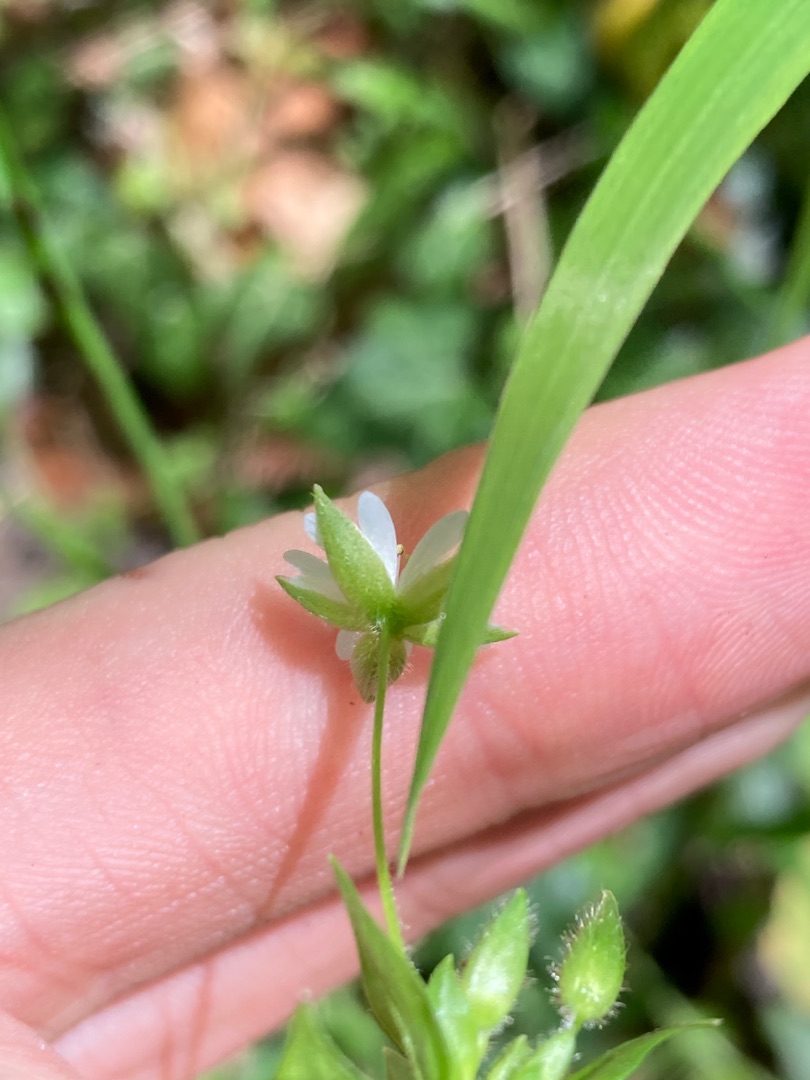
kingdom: Plantae
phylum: Tracheophyta
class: Magnoliopsida
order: Caryophyllales
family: Caryophyllaceae
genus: Stellaria
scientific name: Stellaria neglecta
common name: Skov-fuglegræs
